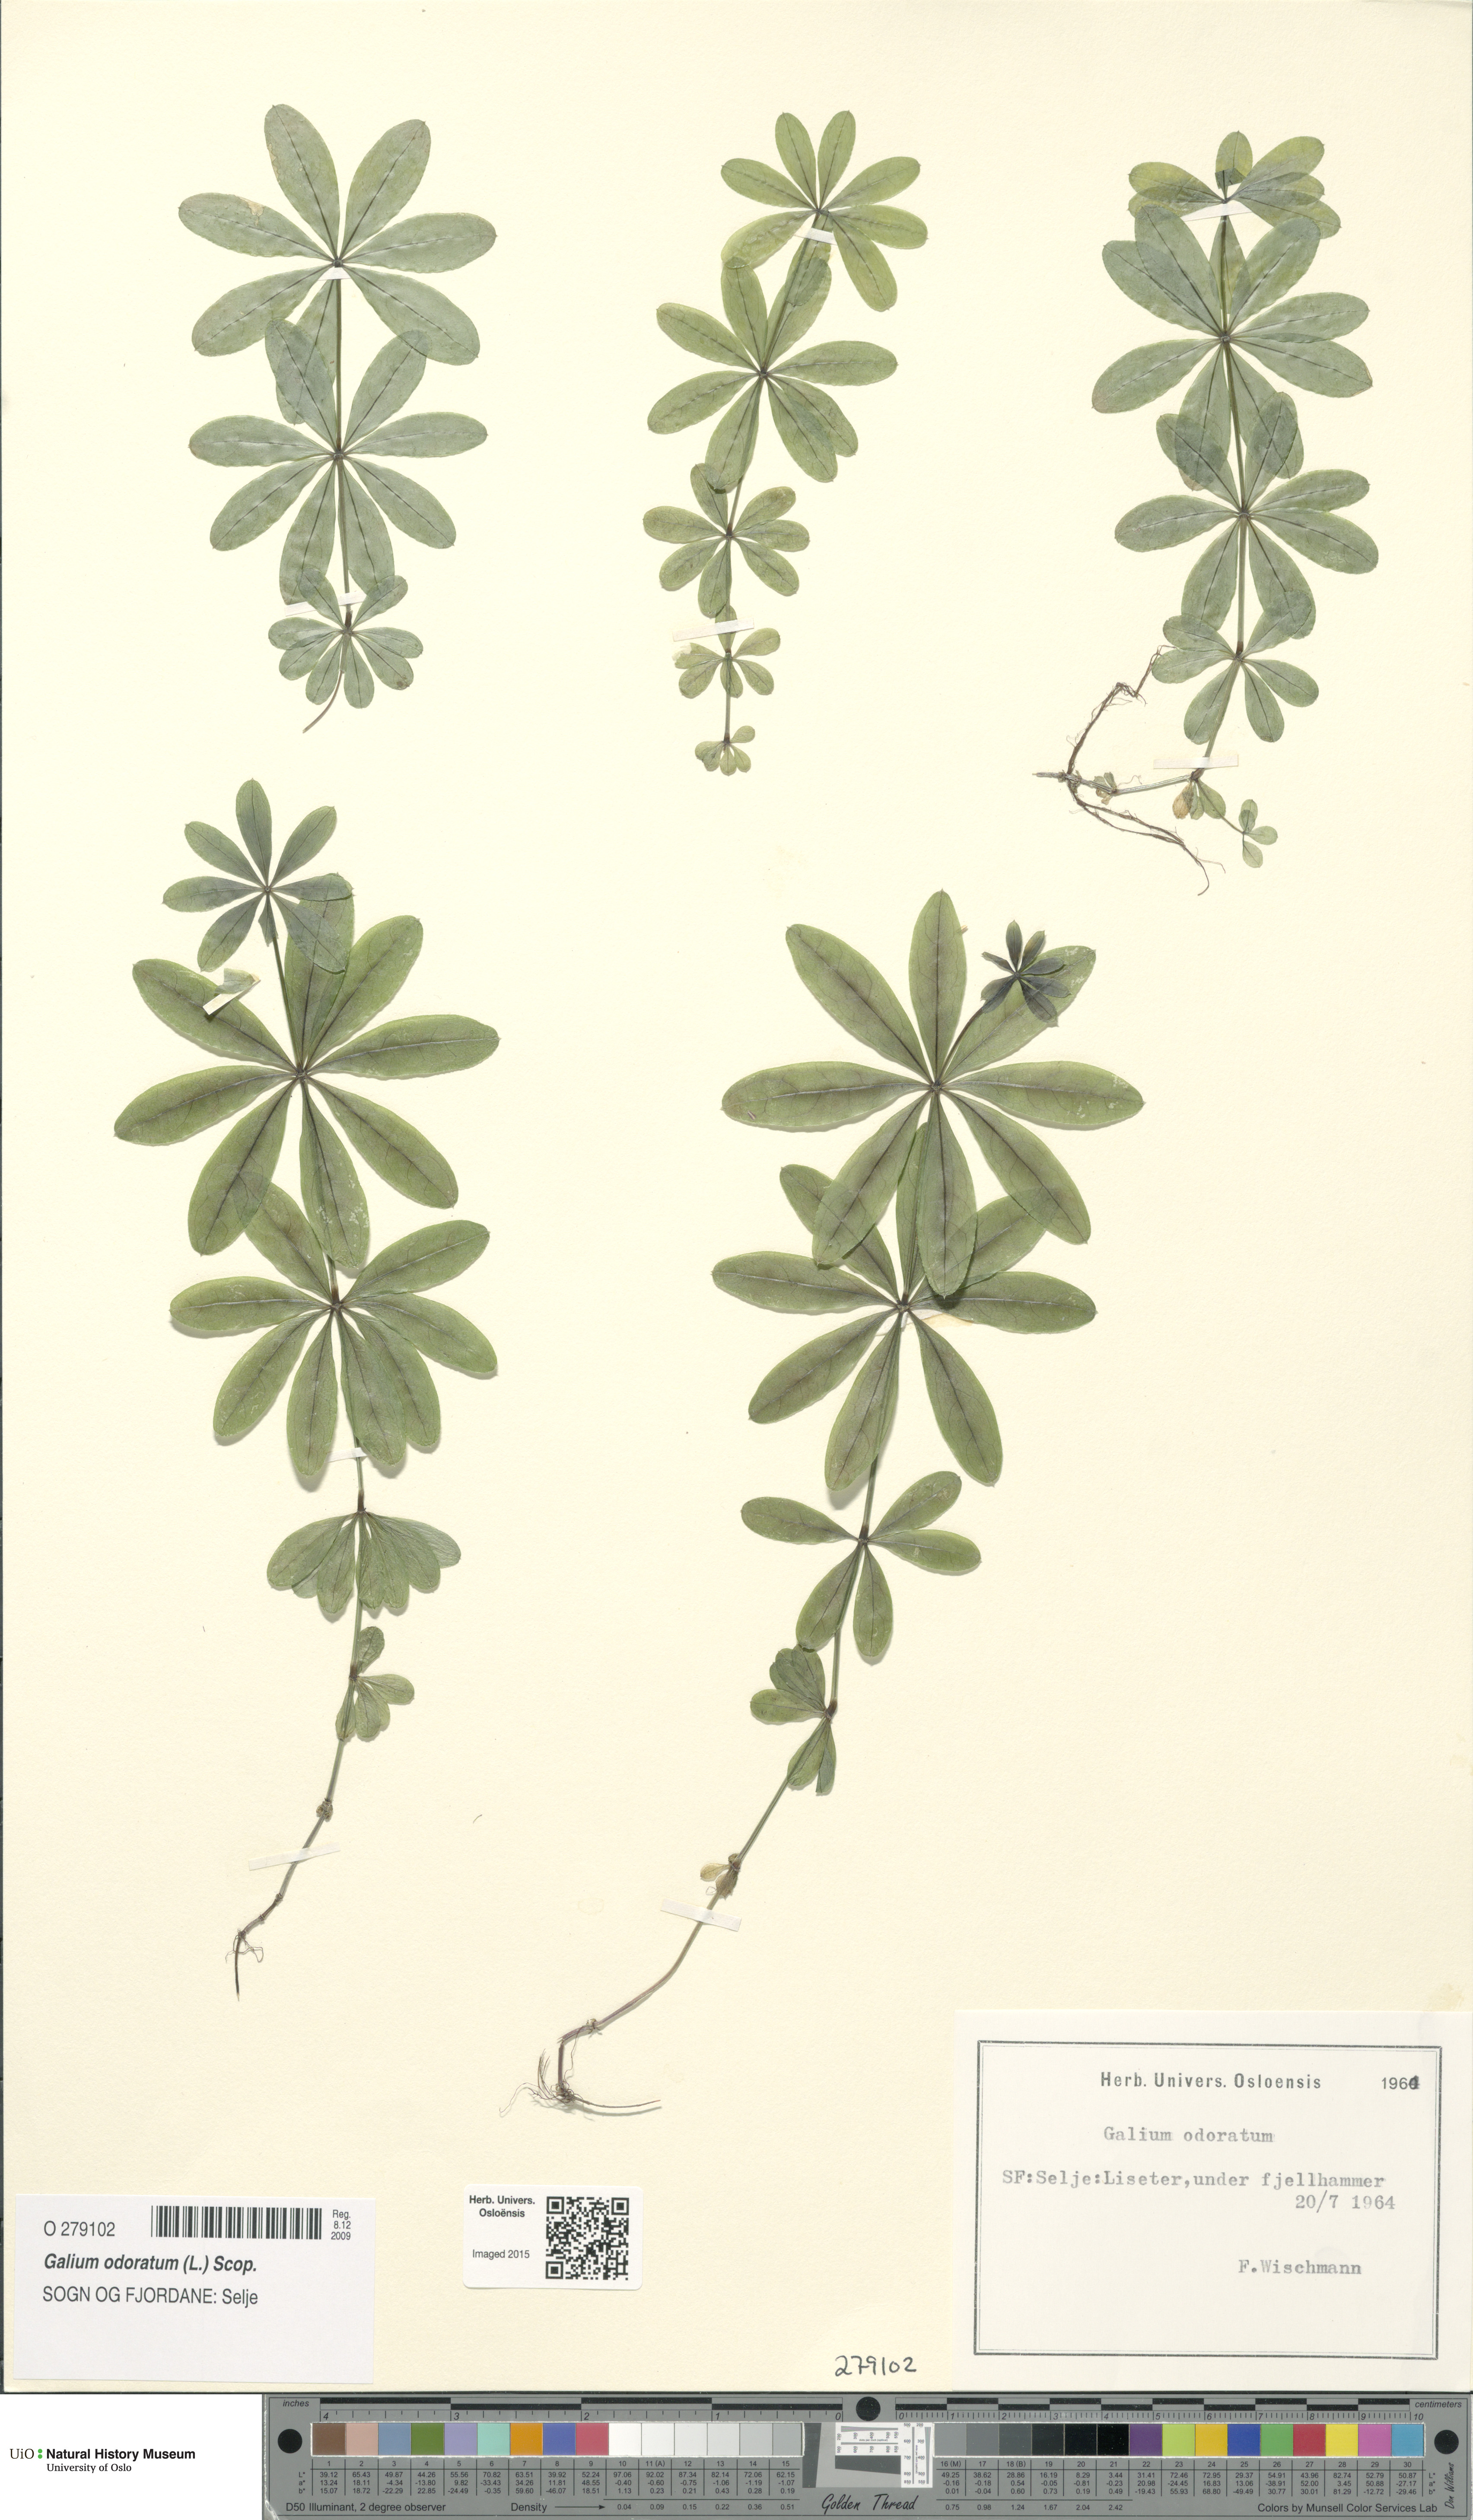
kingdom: Plantae
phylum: Tracheophyta
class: Magnoliopsida
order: Gentianales
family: Rubiaceae
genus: Galium
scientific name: Galium odoratum
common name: Sweet woodruff
